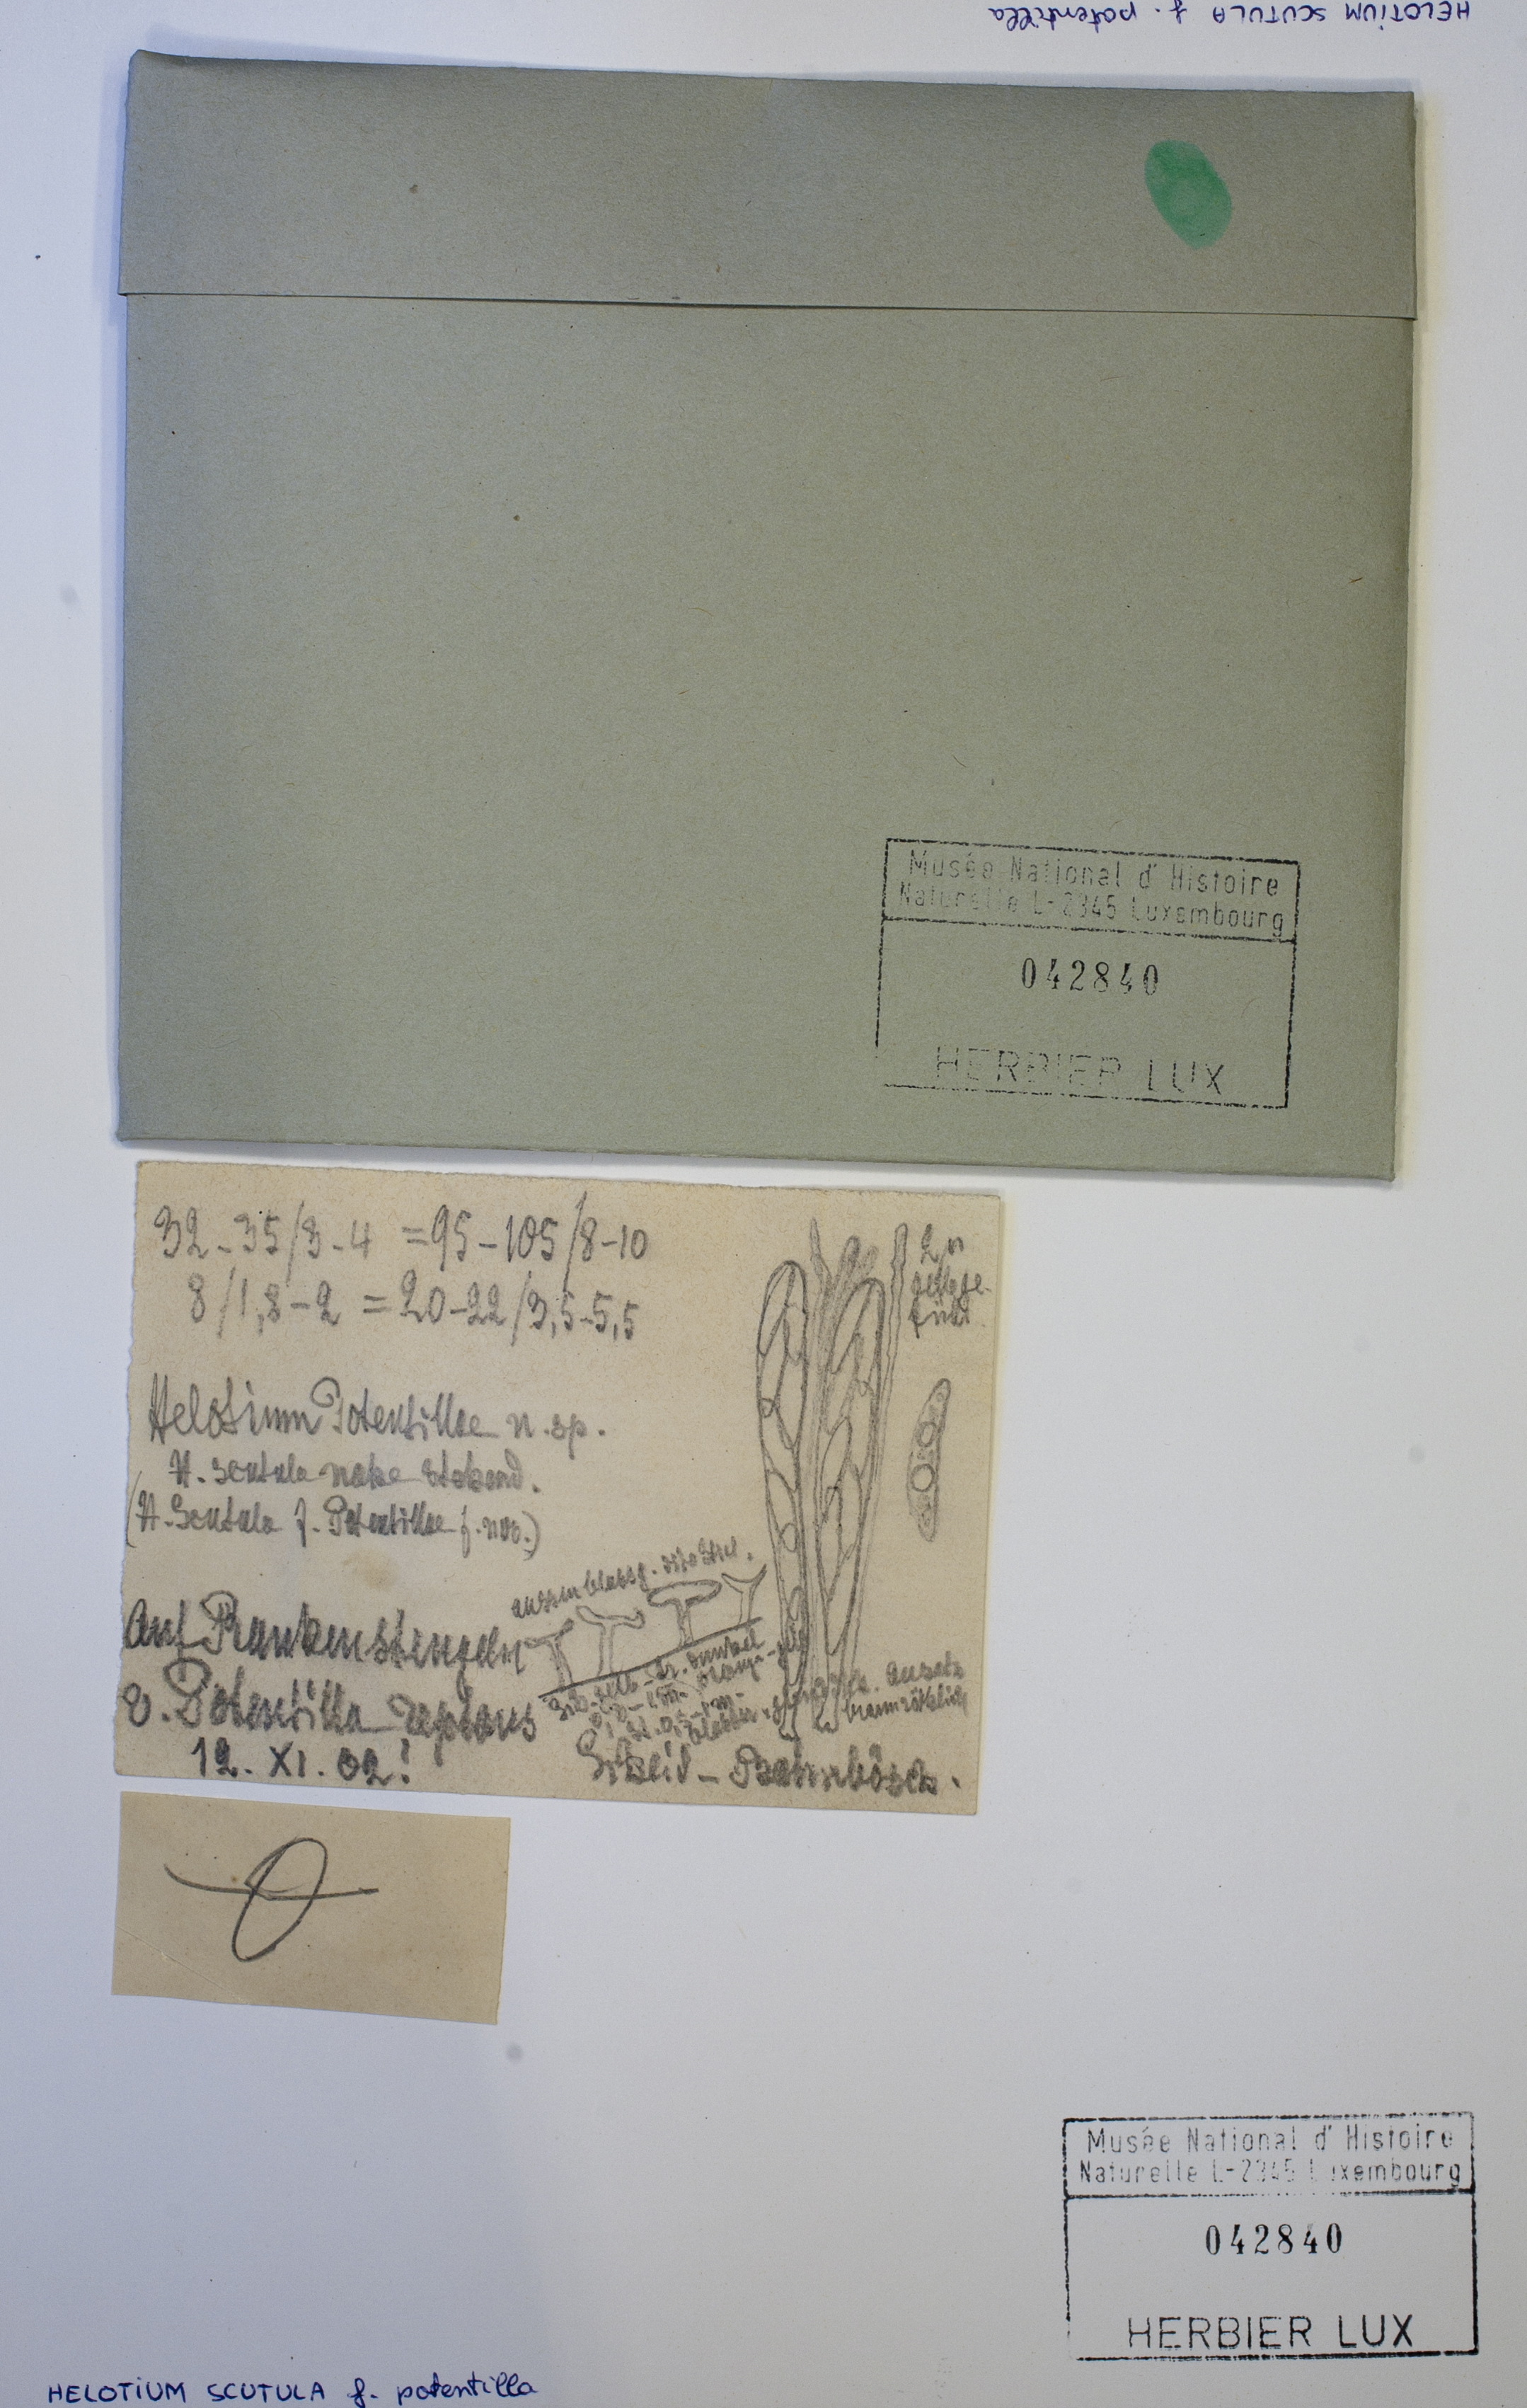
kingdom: Fungi
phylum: Ascomycota
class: Leotiomycetes
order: Helotiales
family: Helotiaceae
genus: Hymenoscyphus
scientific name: Hymenoscyphus scutula
